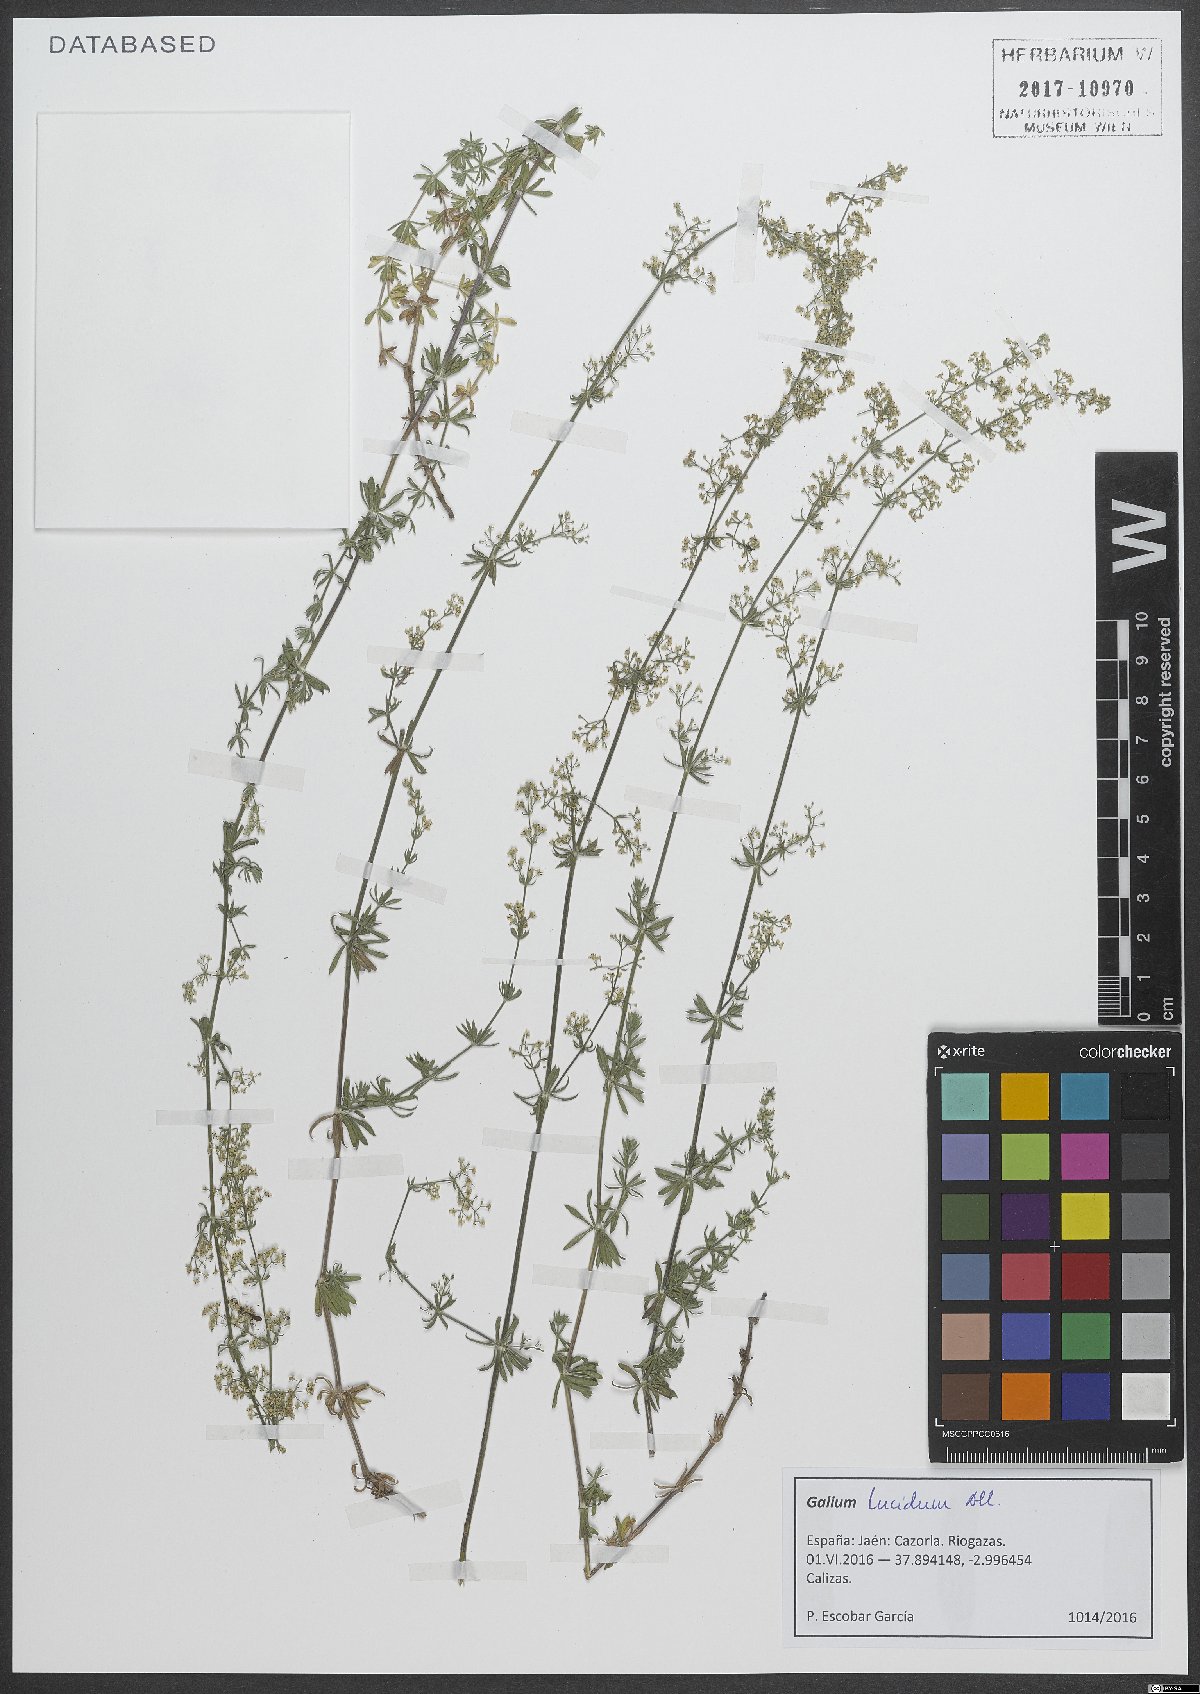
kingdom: Plantae
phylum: Tracheophyta
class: Magnoliopsida
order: Gentianales
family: Rubiaceae
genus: Galium
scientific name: Galium lucidum
